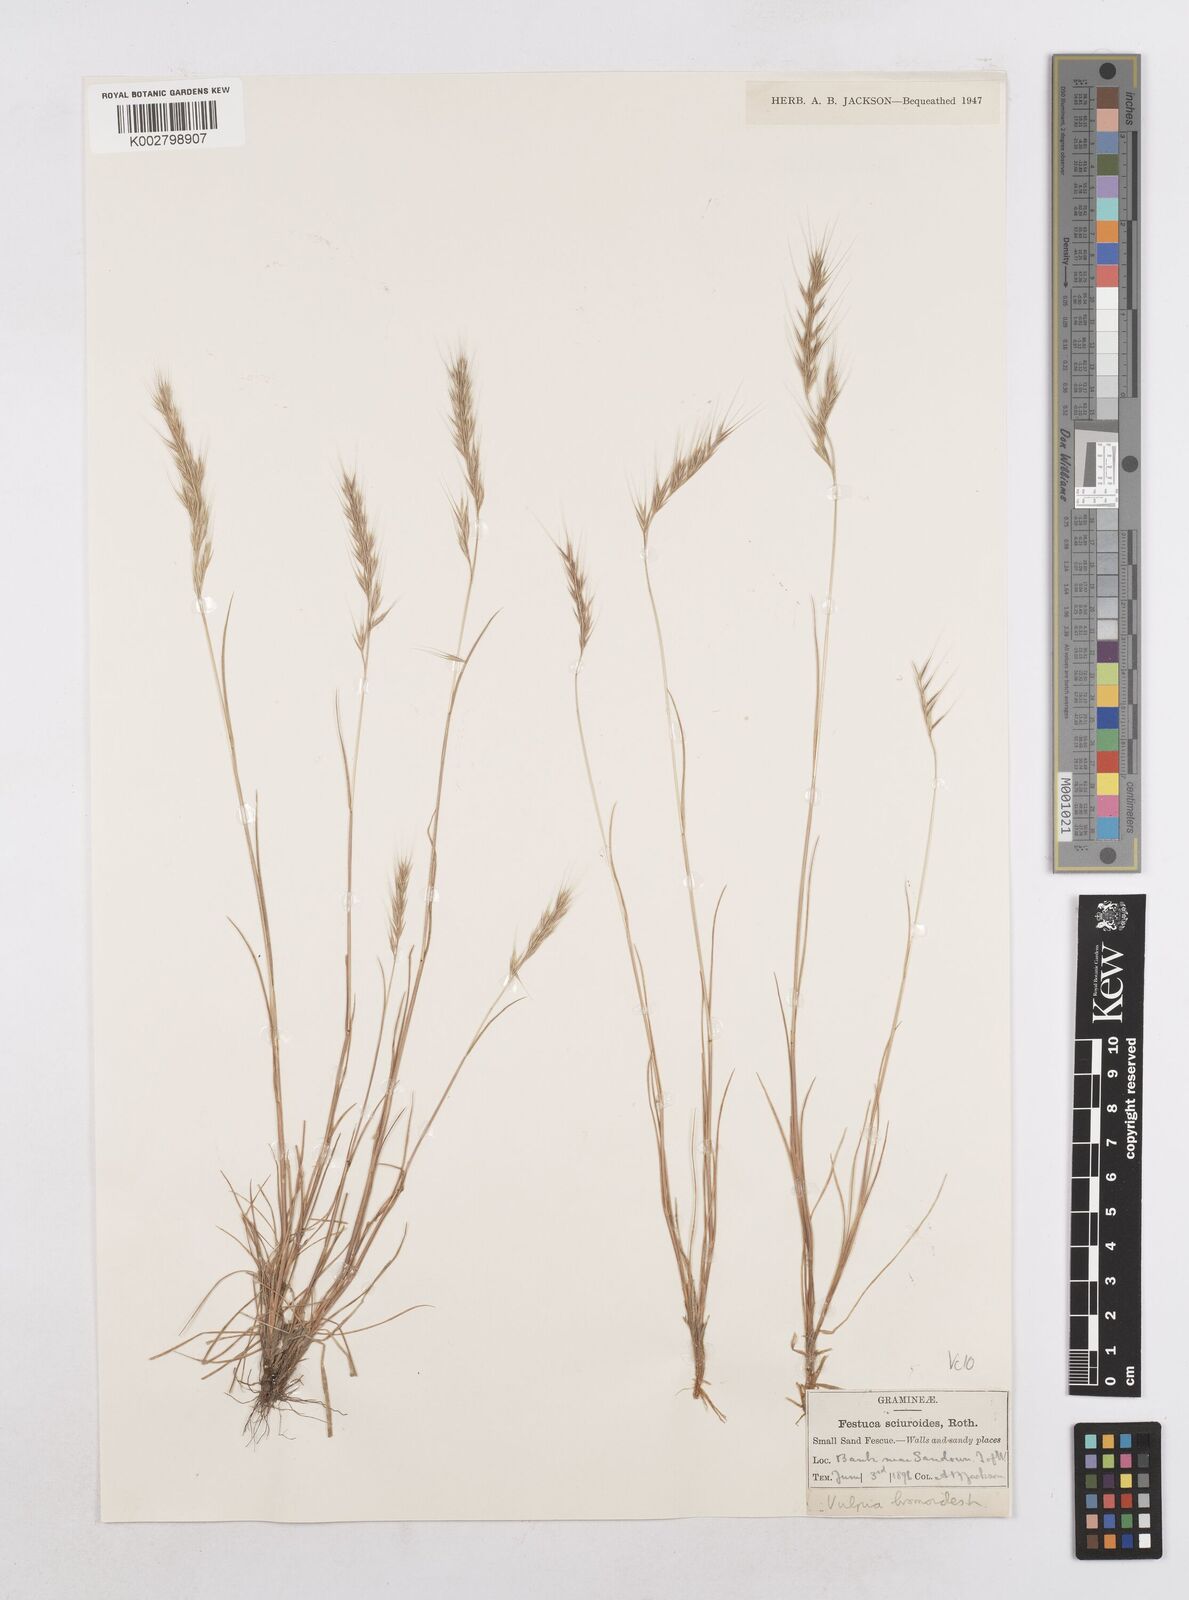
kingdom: Plantae
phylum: Tracheophyta
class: Liliopsida
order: Poales
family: Poaceae
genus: Festuca
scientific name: Festuca bromoides
